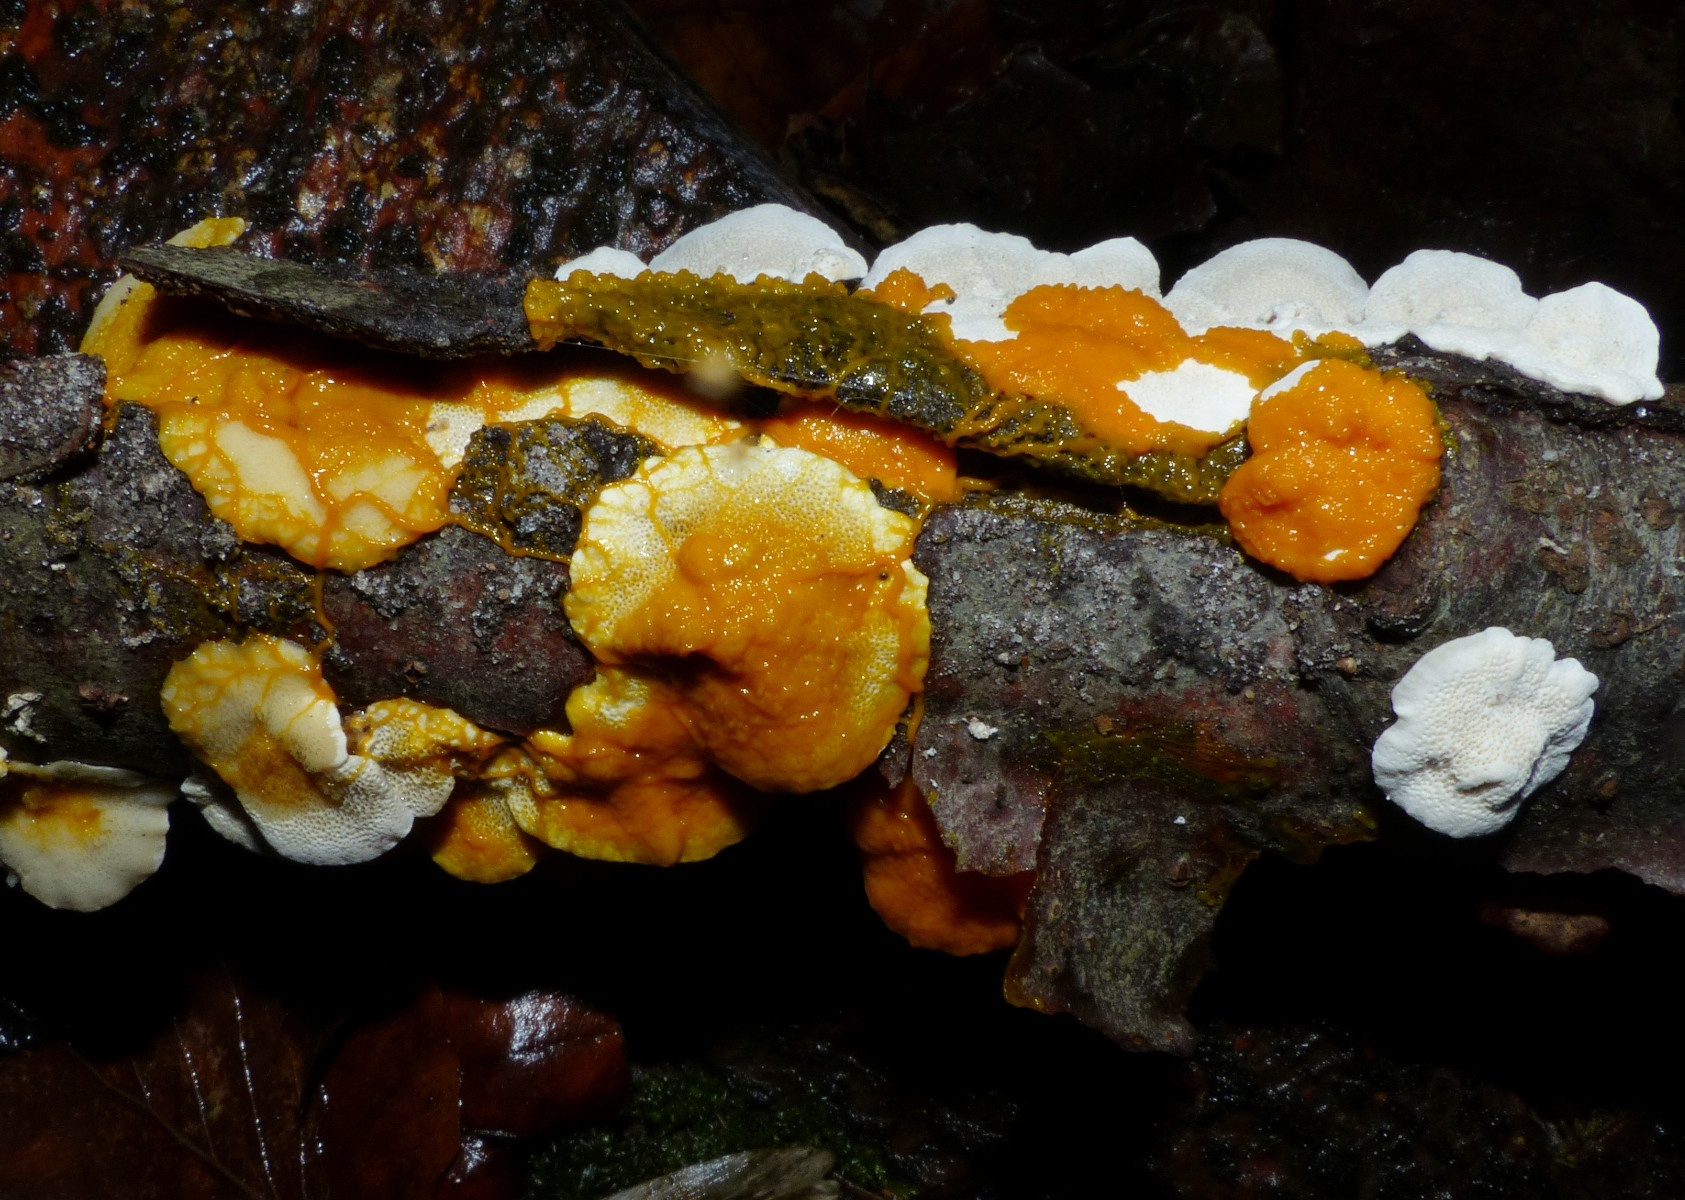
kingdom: Protozoa
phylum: Mycetozoa
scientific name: Mycetozoa
